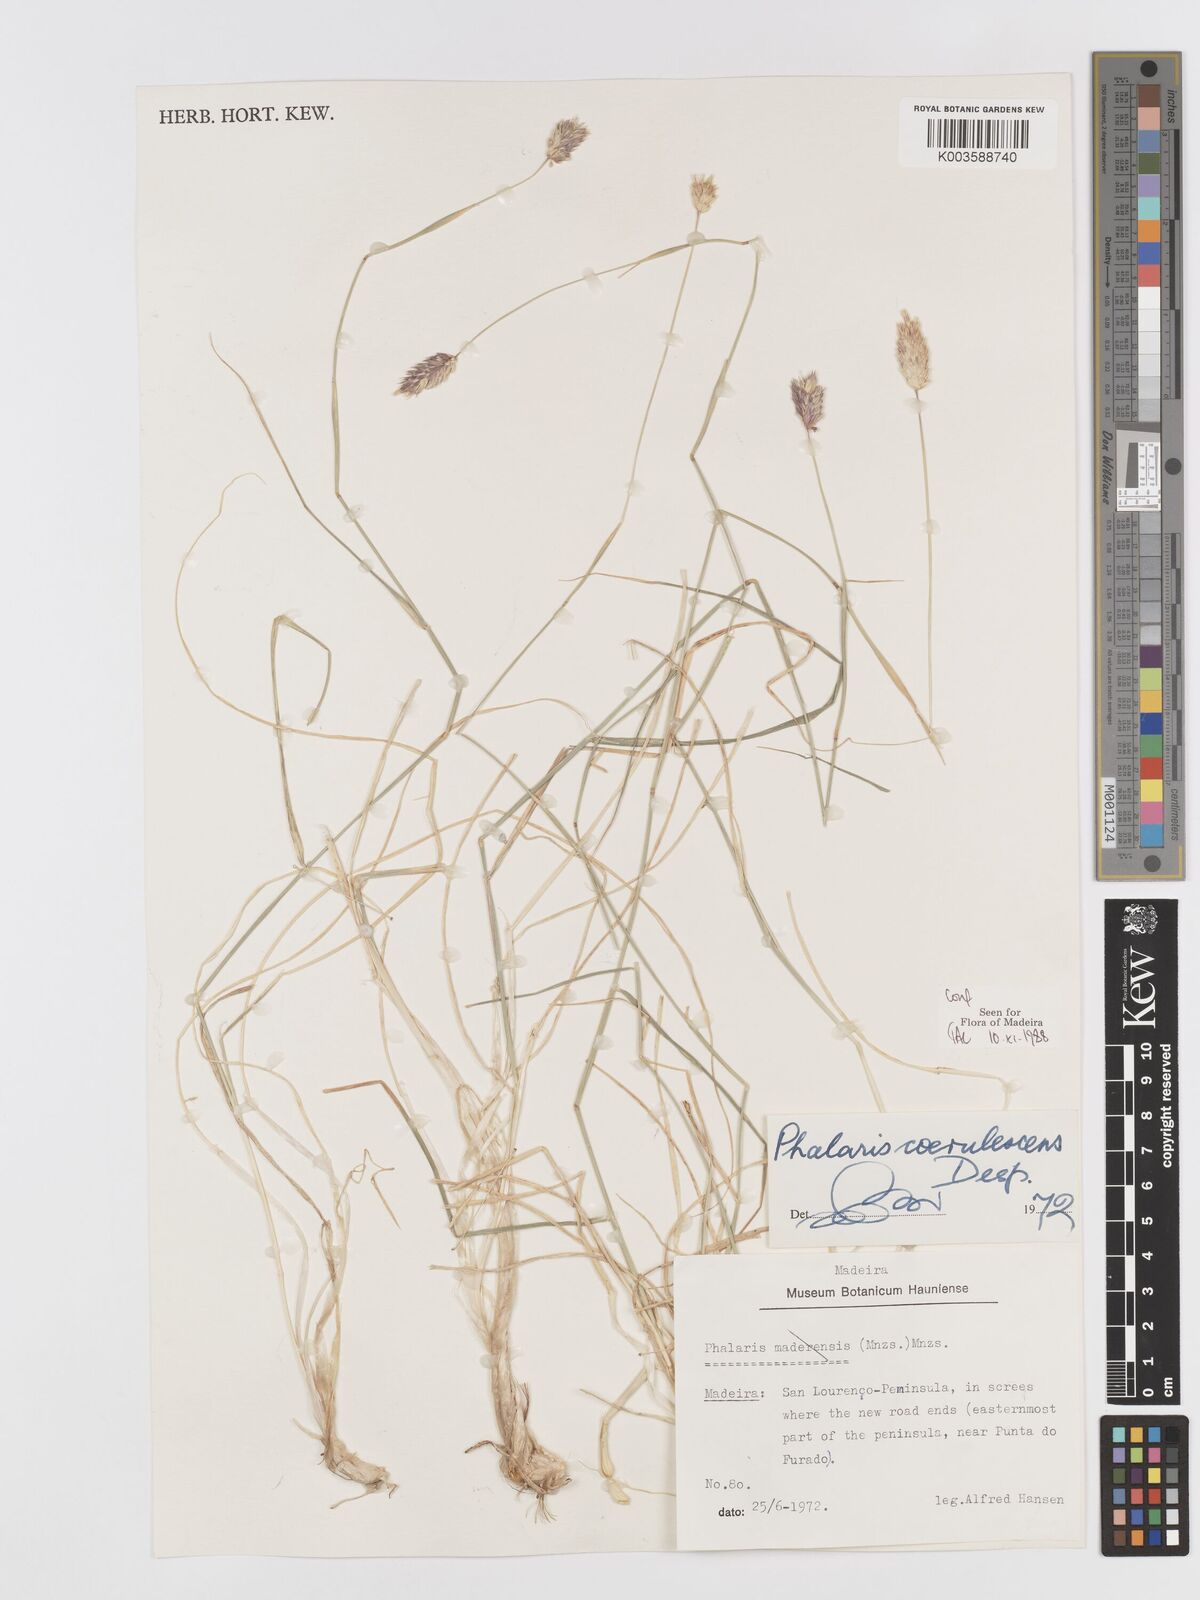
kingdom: Plantae
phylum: Tracheophyta
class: Liliopsida
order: Poales
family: Poaceae
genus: Phalaris
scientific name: Phalaris coerulescens
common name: Sunolgrass
